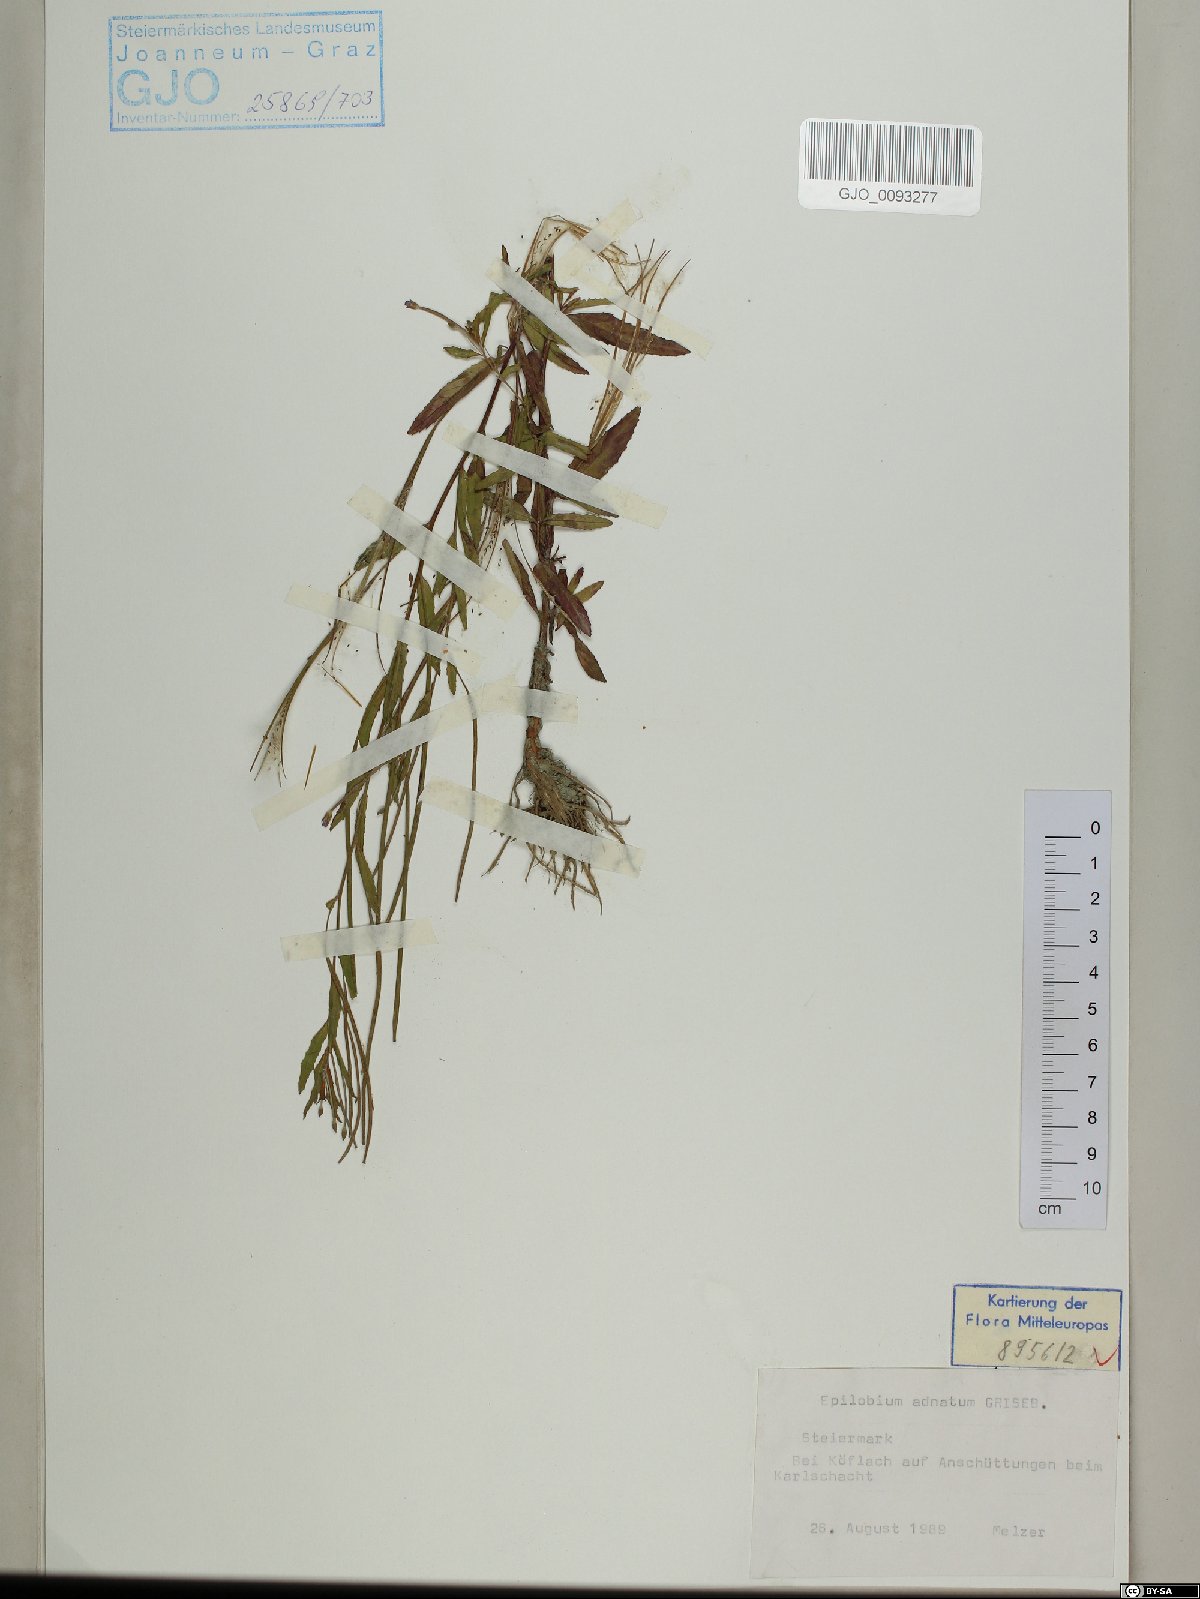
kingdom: Plantae
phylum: Tracheophyta
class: Magnoliopsida
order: Myrtales
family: Onagraceae
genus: Epilobium
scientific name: Epilobium tetragonum
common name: Square-stemmed willowherb
